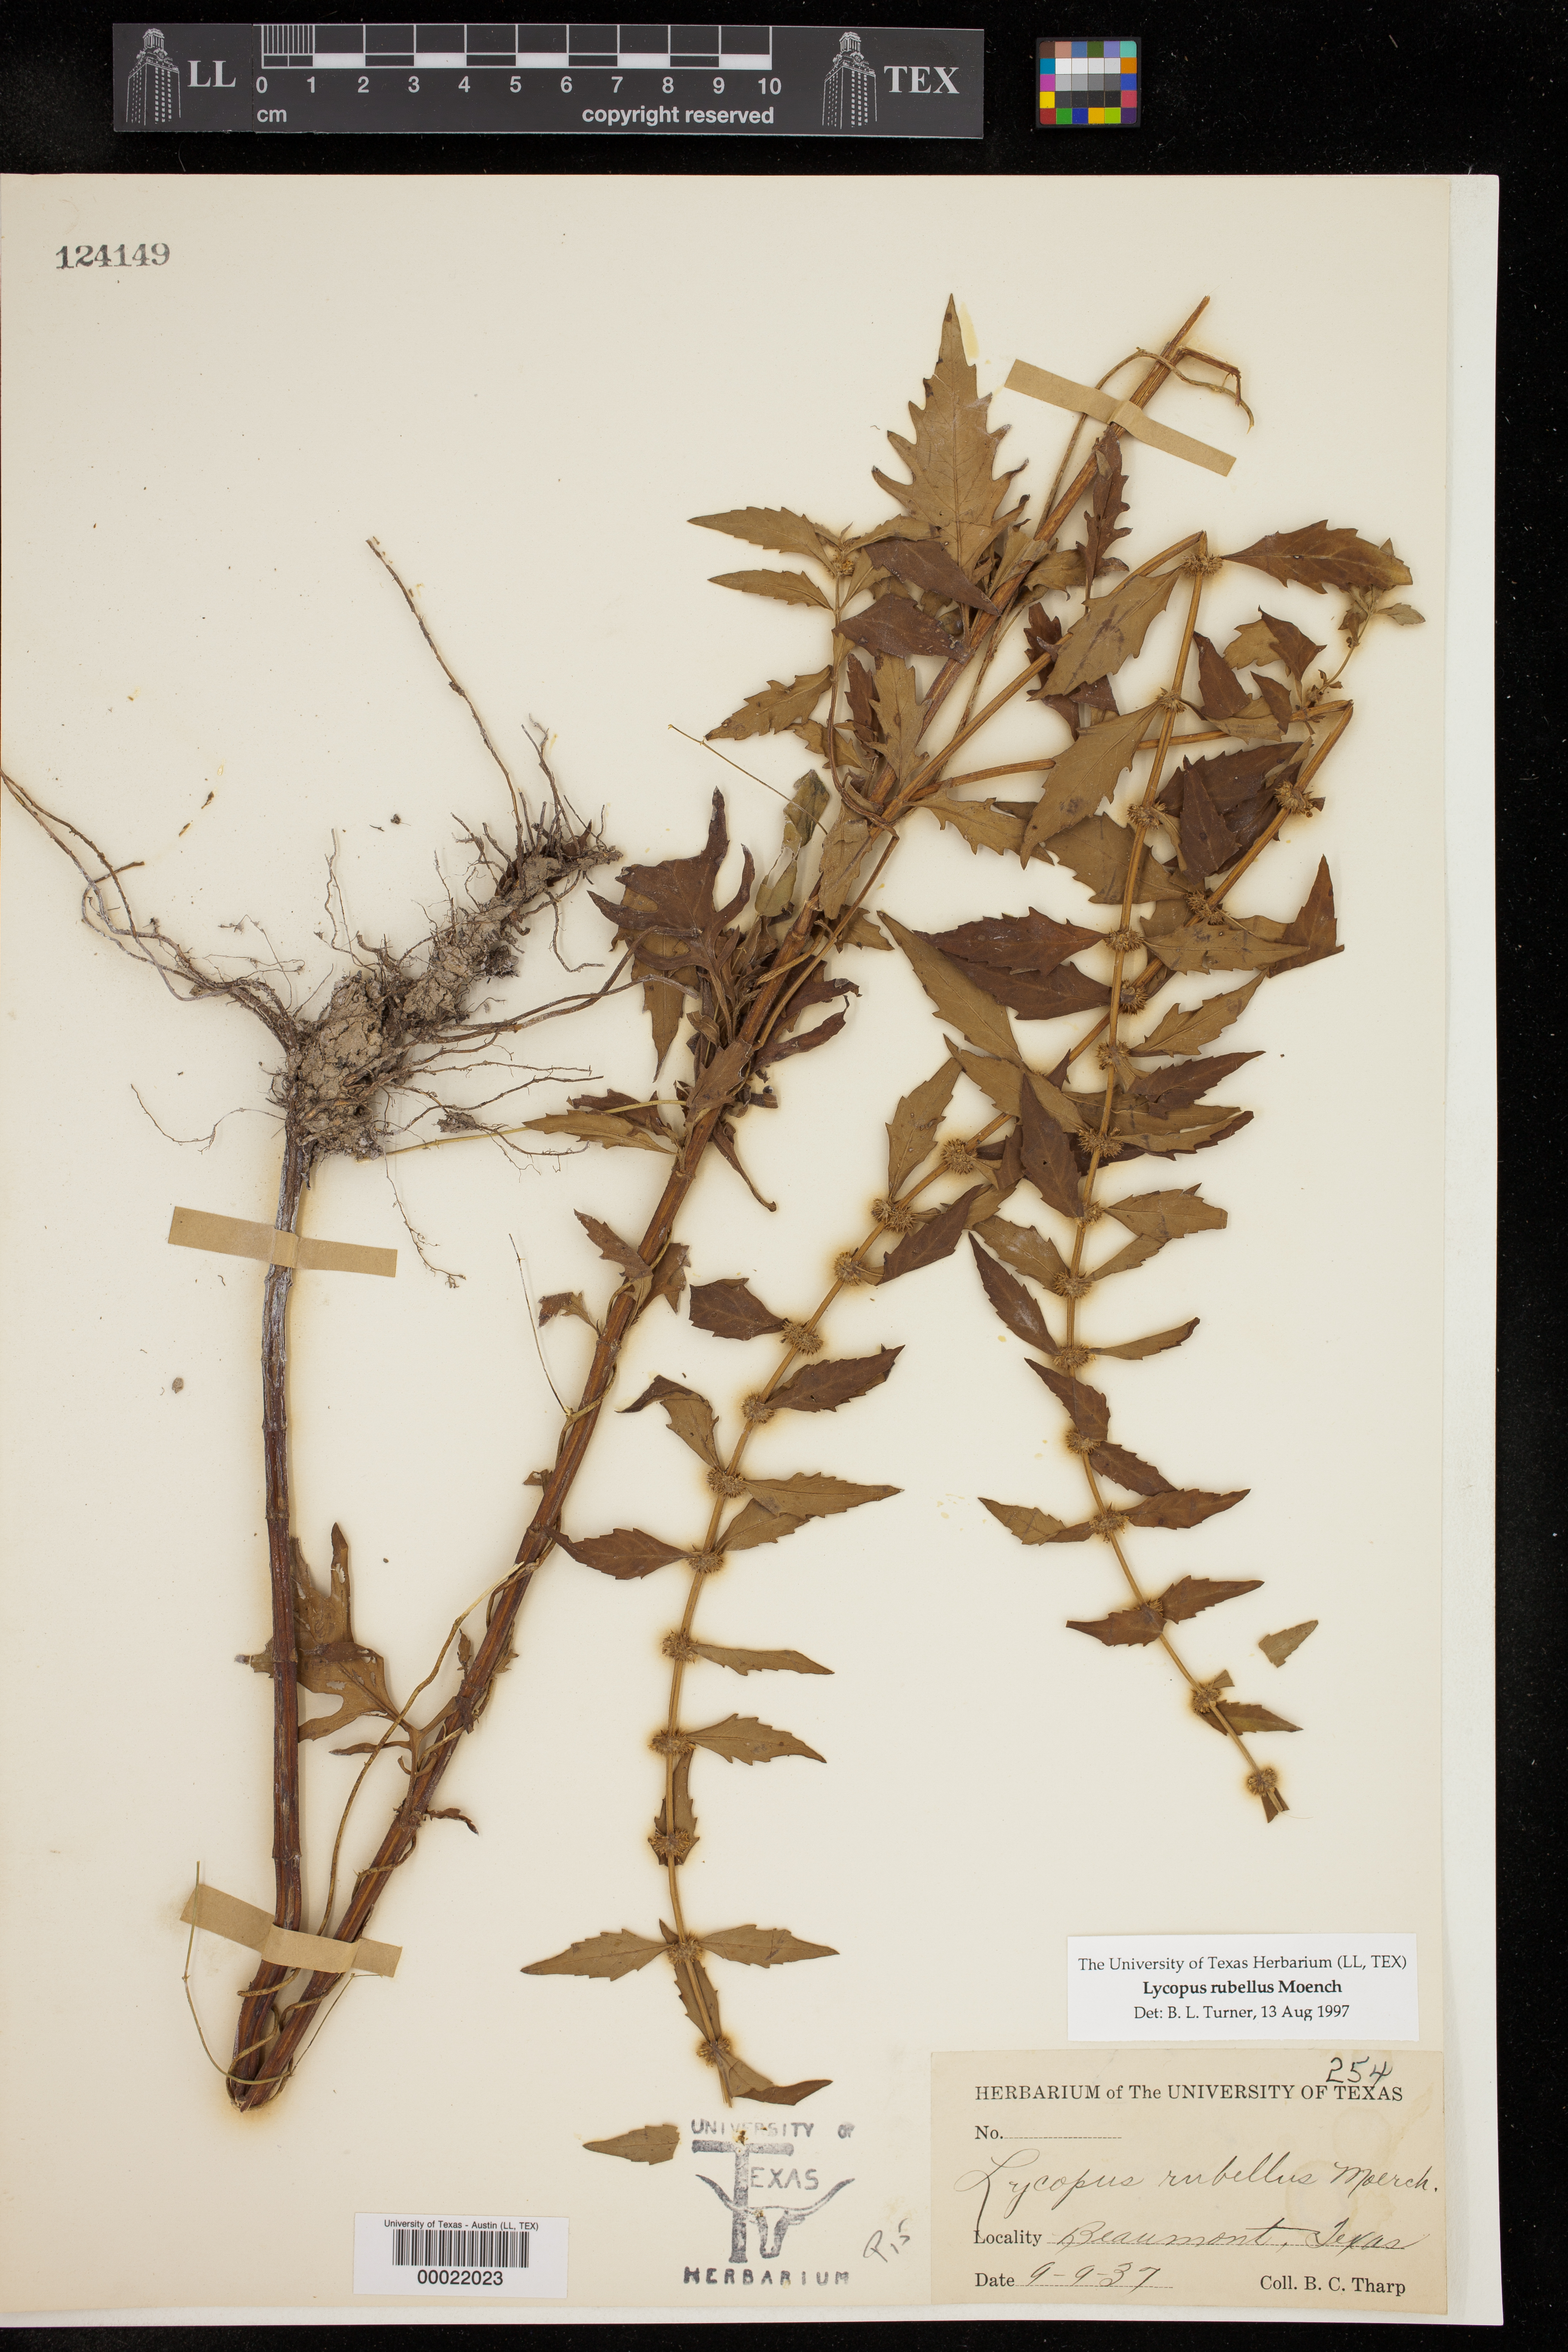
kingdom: Plantae
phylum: Tracheophyta
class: Magnoliopsida
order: Lamiales
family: Lamiaceae
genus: Lycopus
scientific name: Lycopus rubellus
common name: Stalked bugleweed
